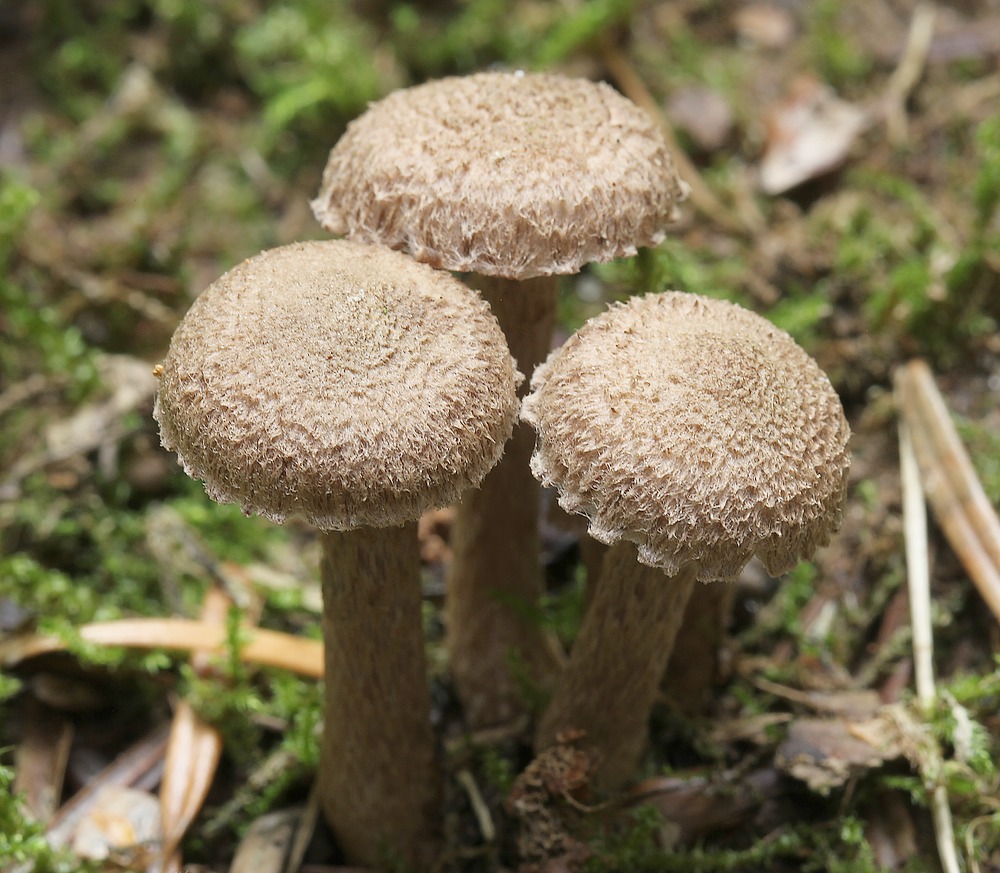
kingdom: Fungi
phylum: Basidiomycota
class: Agaricomycetes
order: Agaricales
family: Inocybaceae
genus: Inocybe
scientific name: Inocybe cincinnata
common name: lillabladet trævlhat
